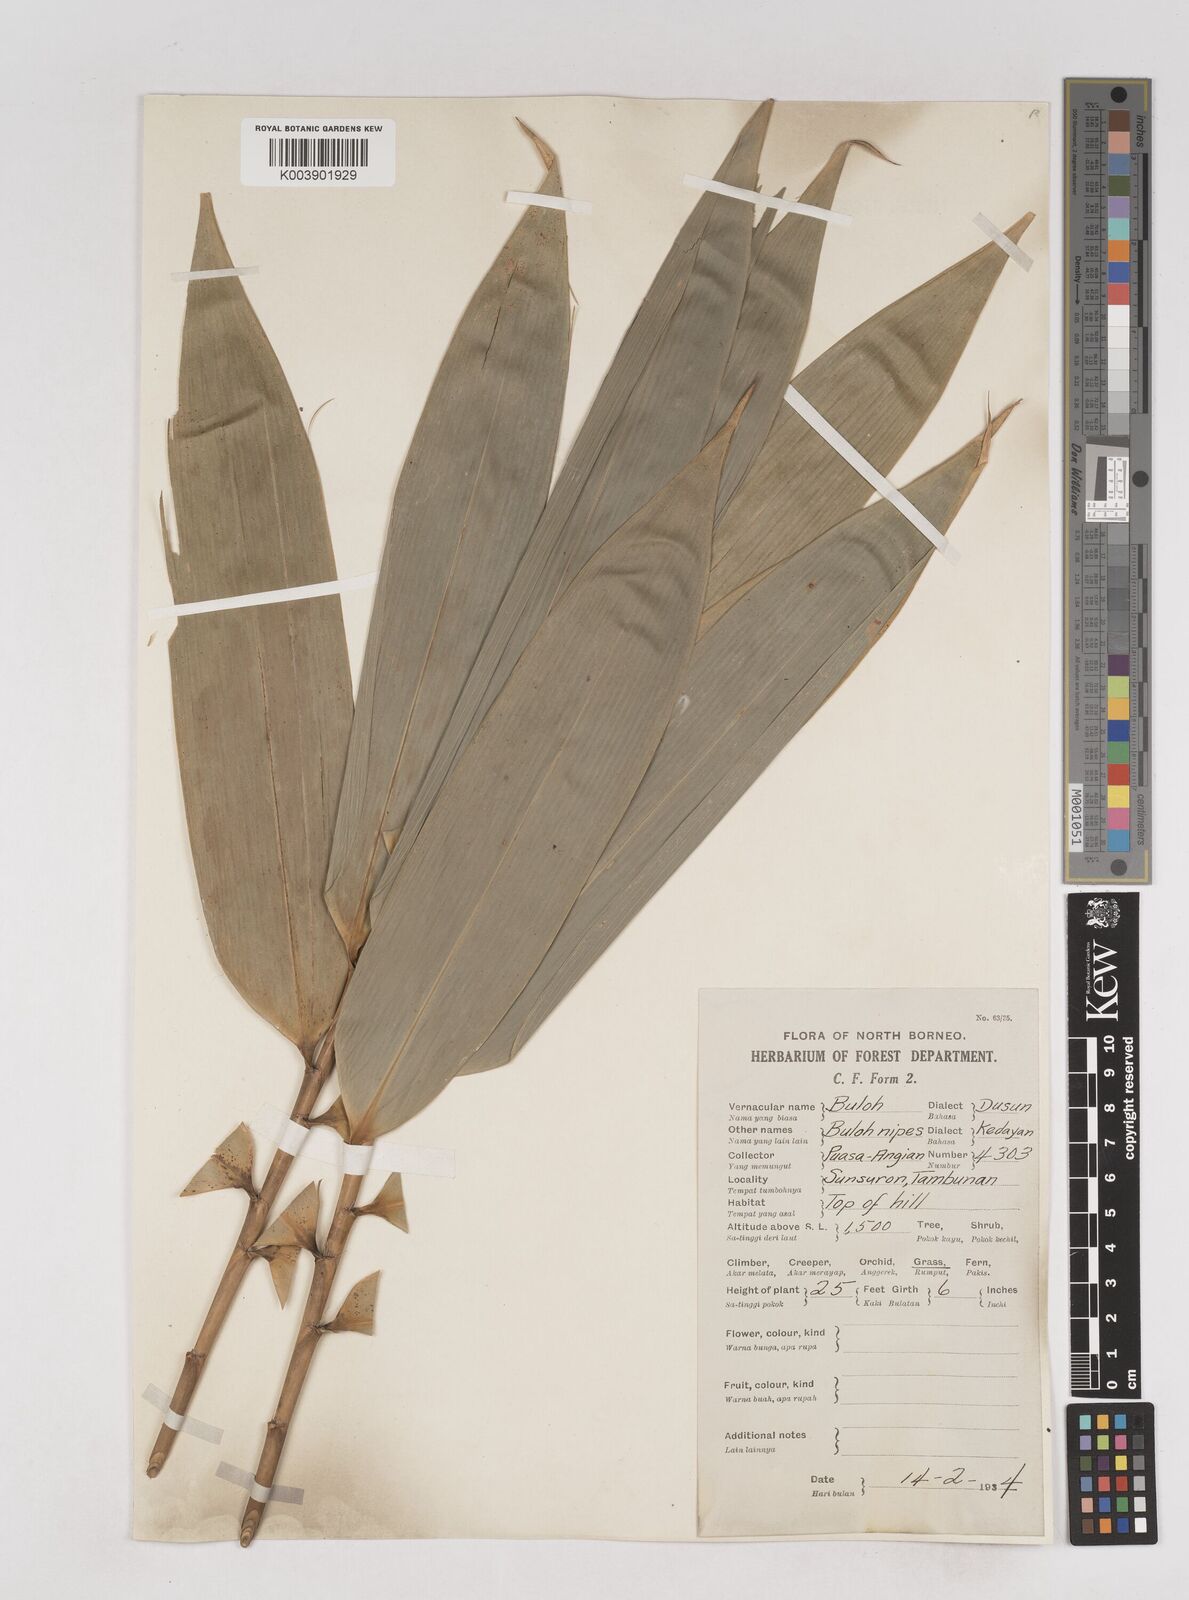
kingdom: Plantae
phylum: Tracheophyta
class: Liliopsida
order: Poales
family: Poaceae
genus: Schizostachyum
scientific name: Schizostachyum brachycladum
